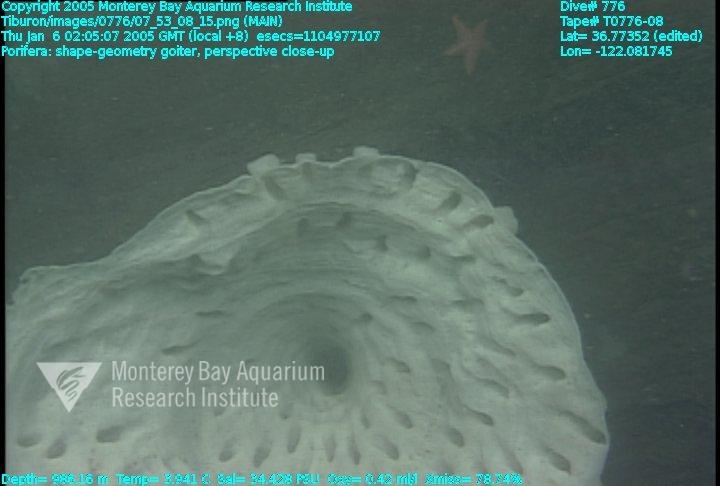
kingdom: Animalia
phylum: Porifera
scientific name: Porifera
